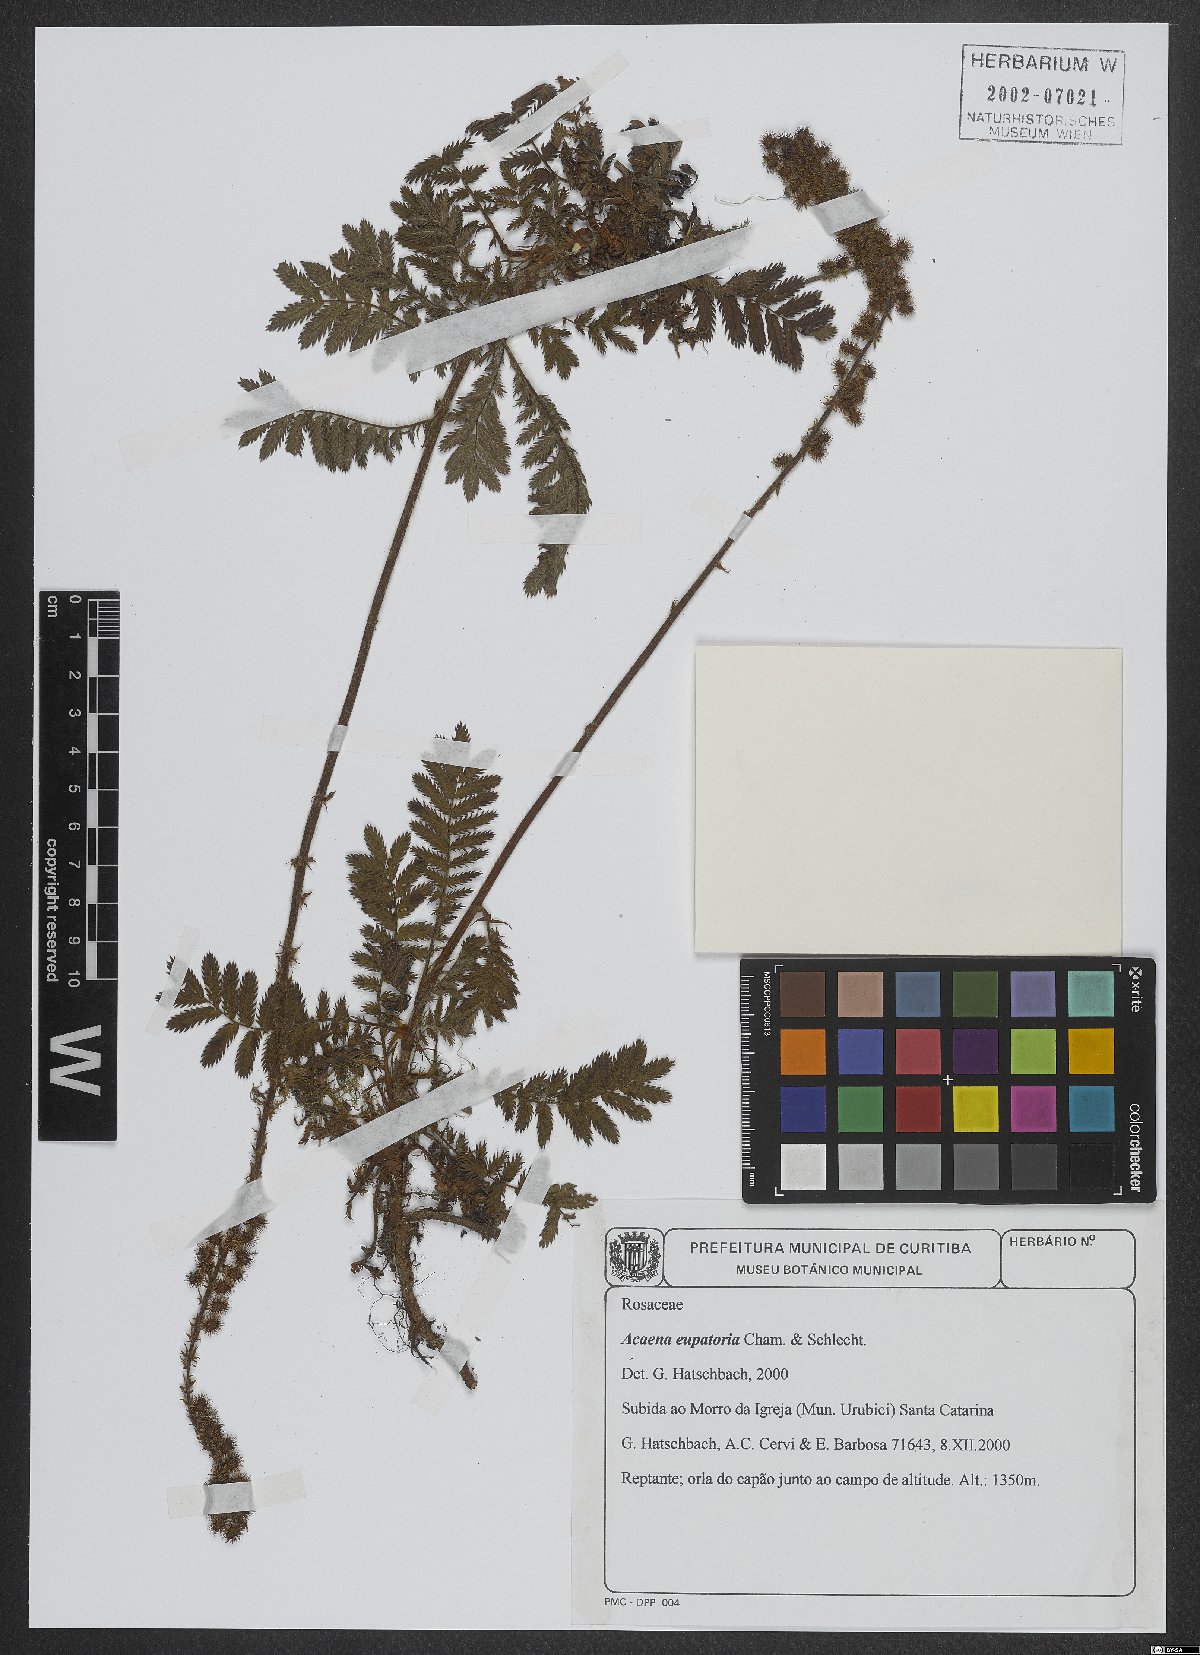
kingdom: Plantae
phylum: Tracheophyta
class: Magnoliopsida
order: Rosales
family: Rosaceae
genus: Acaena
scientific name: Acaena eupatoria
